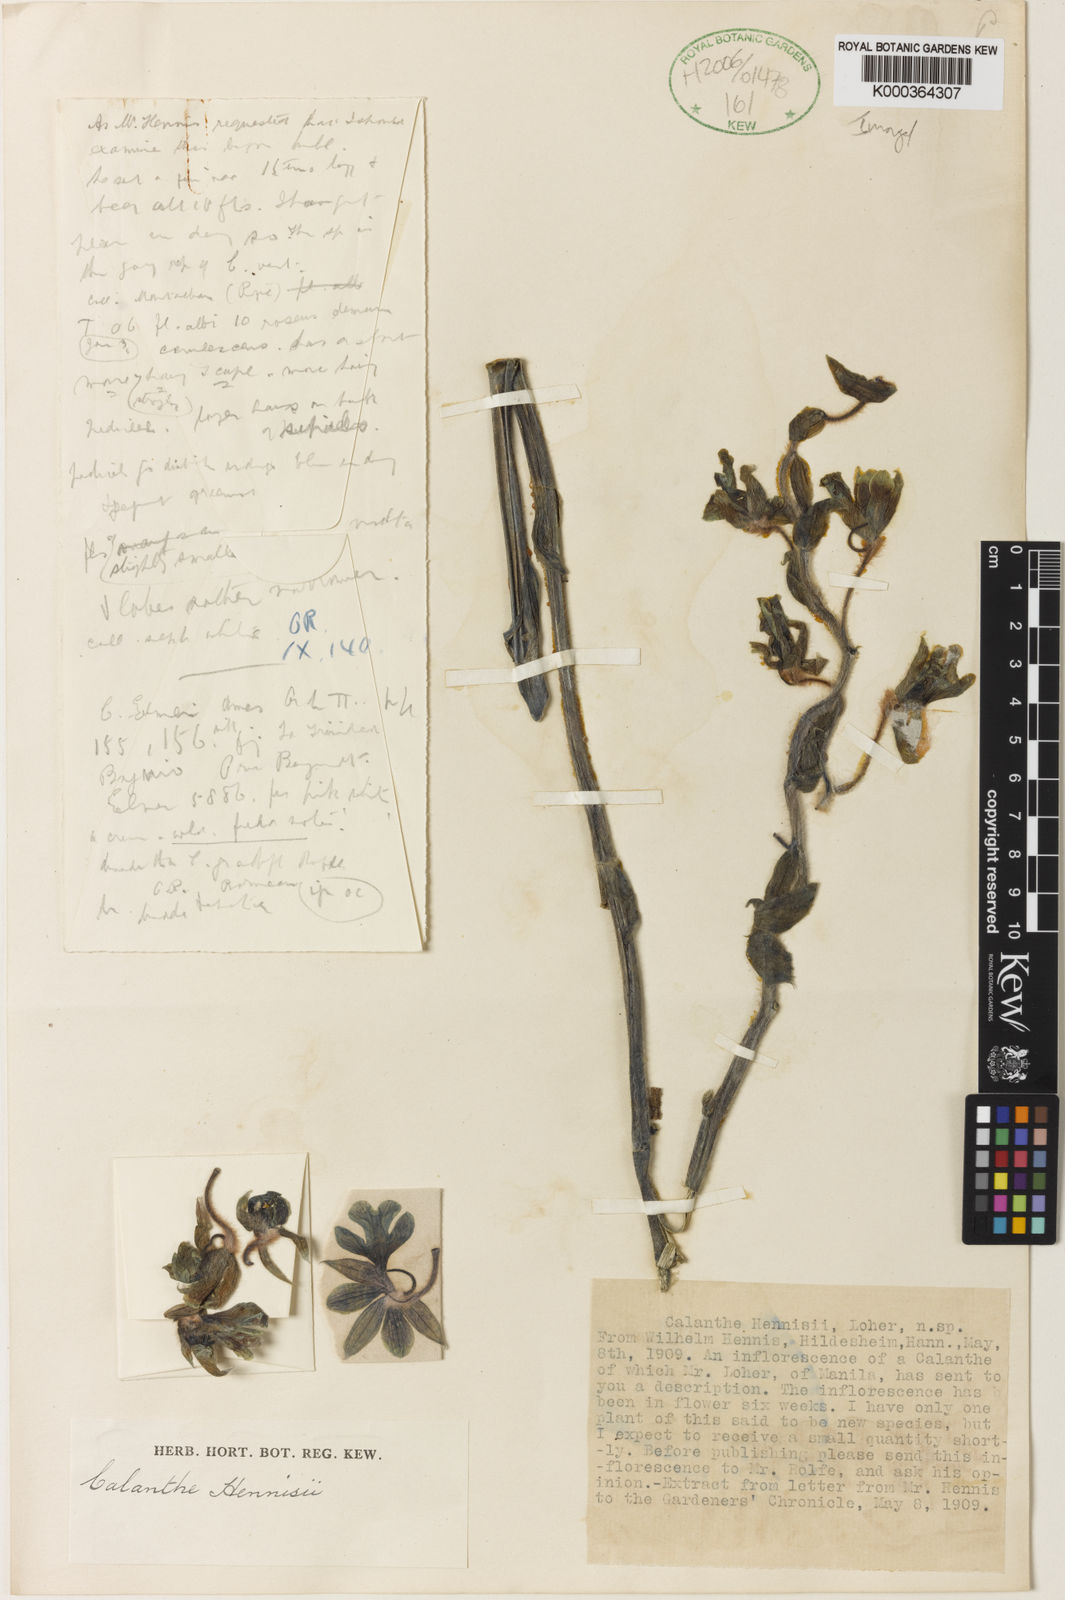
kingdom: Plantae
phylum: Tracheophyta
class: Liliopsida
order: Asparagales
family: Orchidaceae
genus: Calanthe
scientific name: Calanthe vestita
